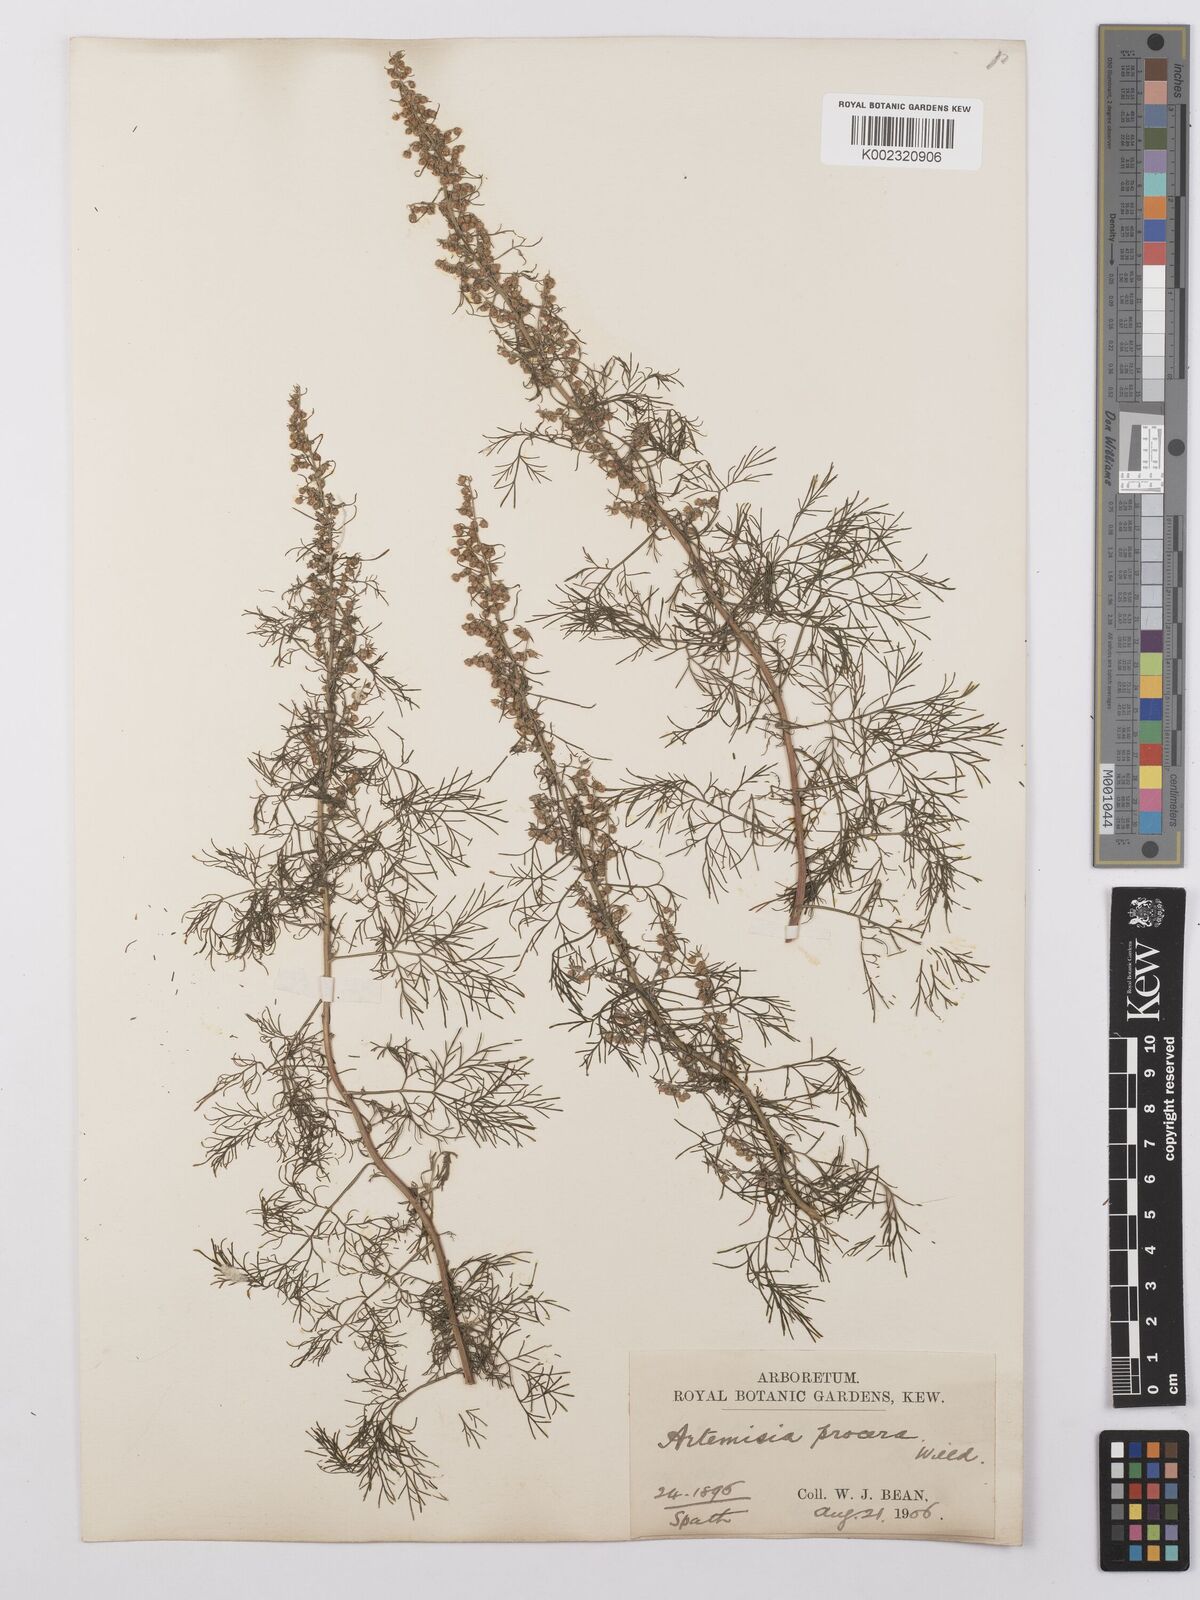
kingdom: Plantae
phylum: Tracheophyta
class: Magnoliopsida
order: Asterales
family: Asteraceae
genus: Artemisia
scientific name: Artemisia abrotanum
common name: Southernwood
